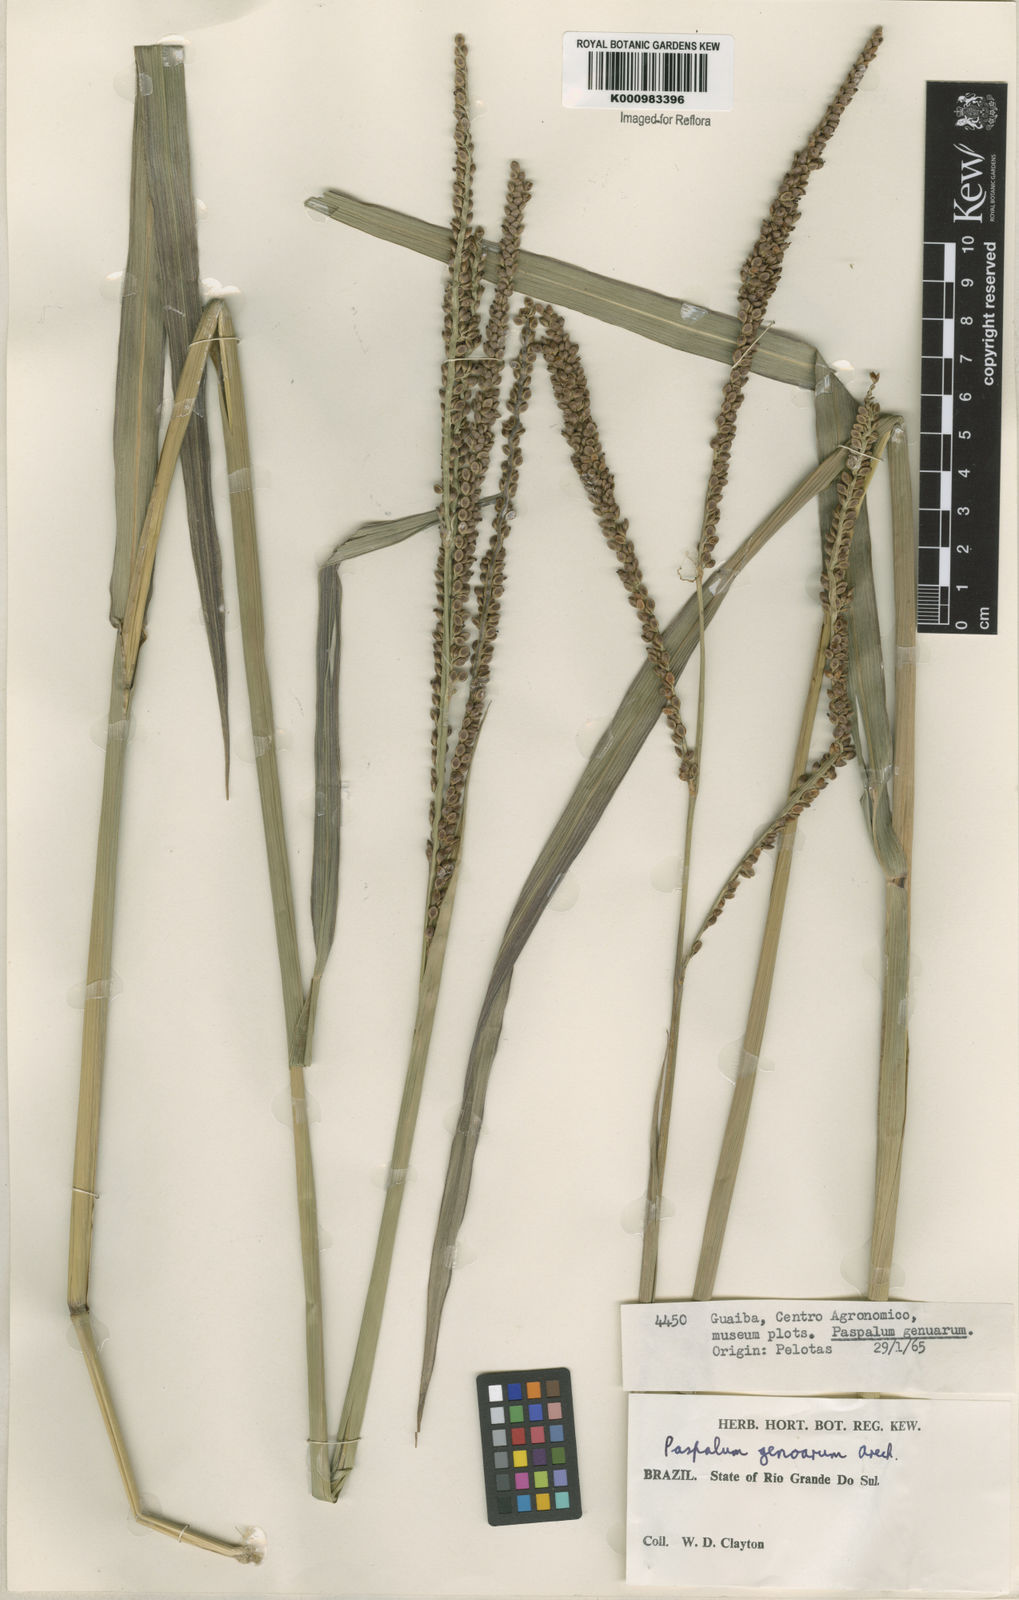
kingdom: Plantae
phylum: Tracheophyta
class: Liliopsida
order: Poales
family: Poaceae
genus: Paspalum
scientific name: Paspalum guenoarum
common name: Wintergreen paspalum
